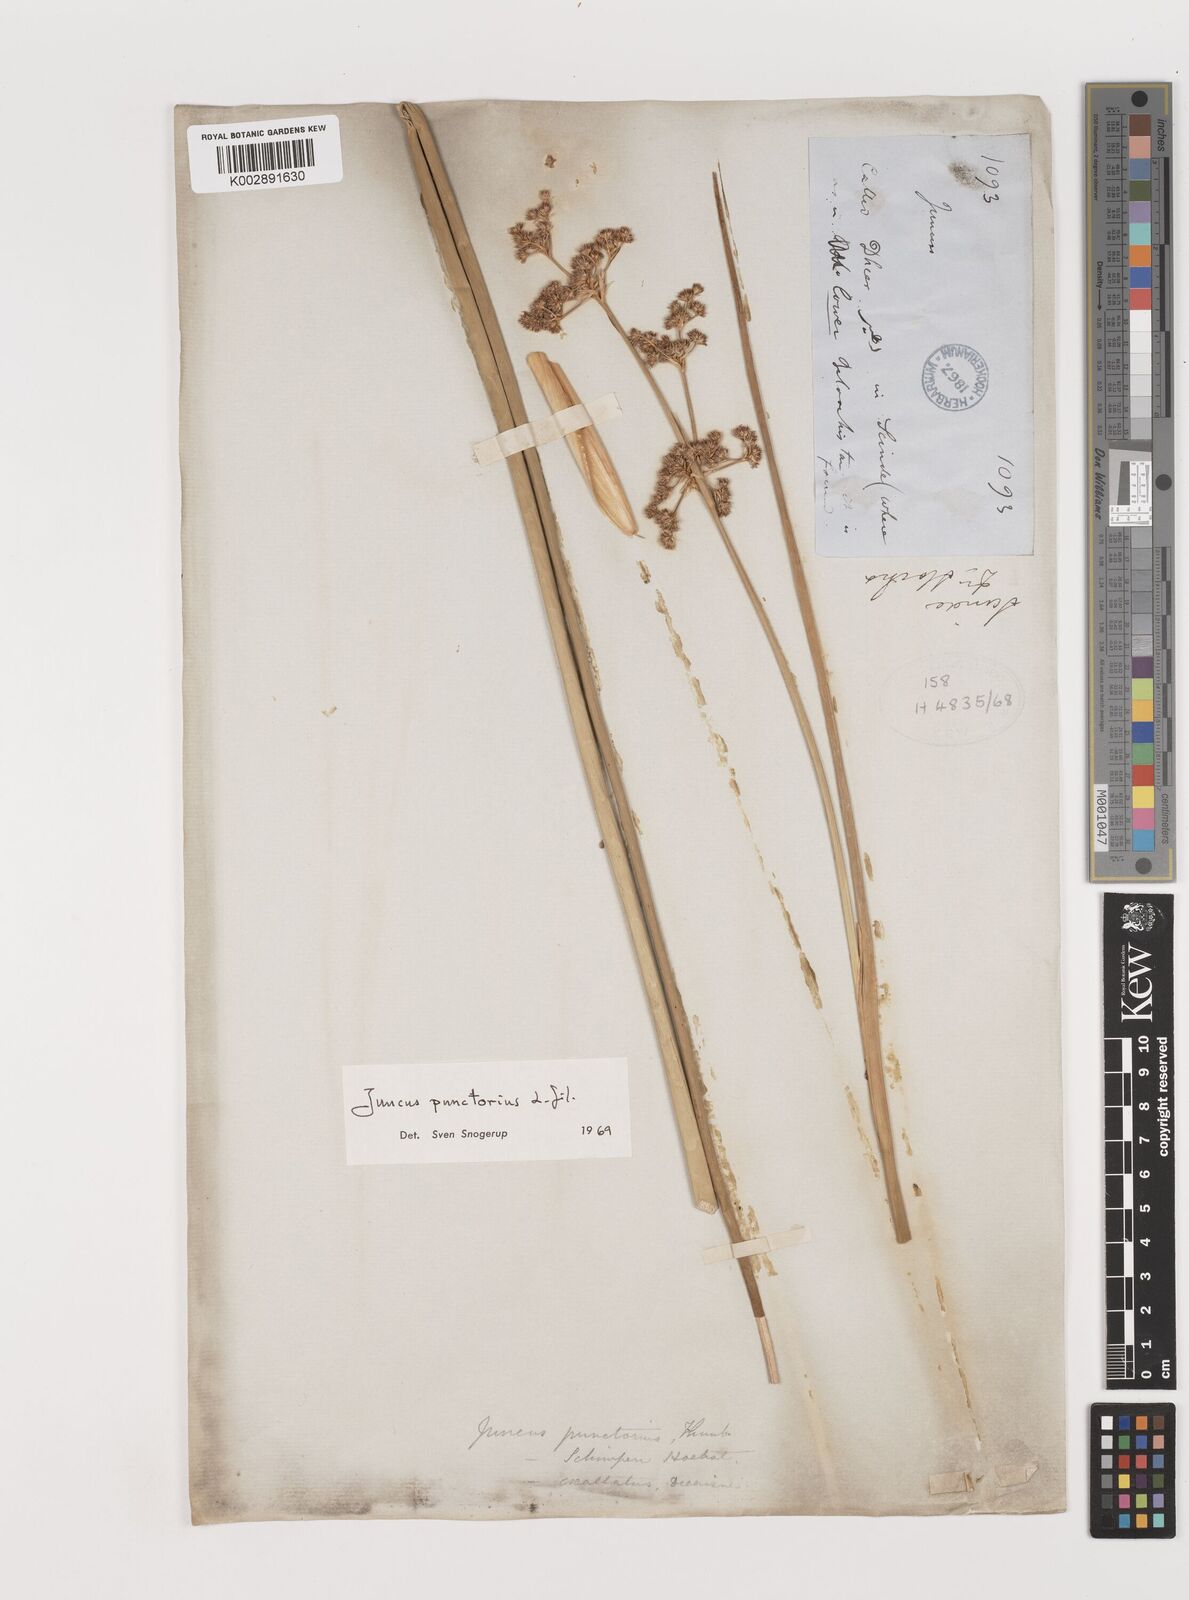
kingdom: Plantae
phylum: Tracheophyta
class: Liliopsida
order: Poales
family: Juncaceae
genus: Juncus
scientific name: Juncus punctorius
